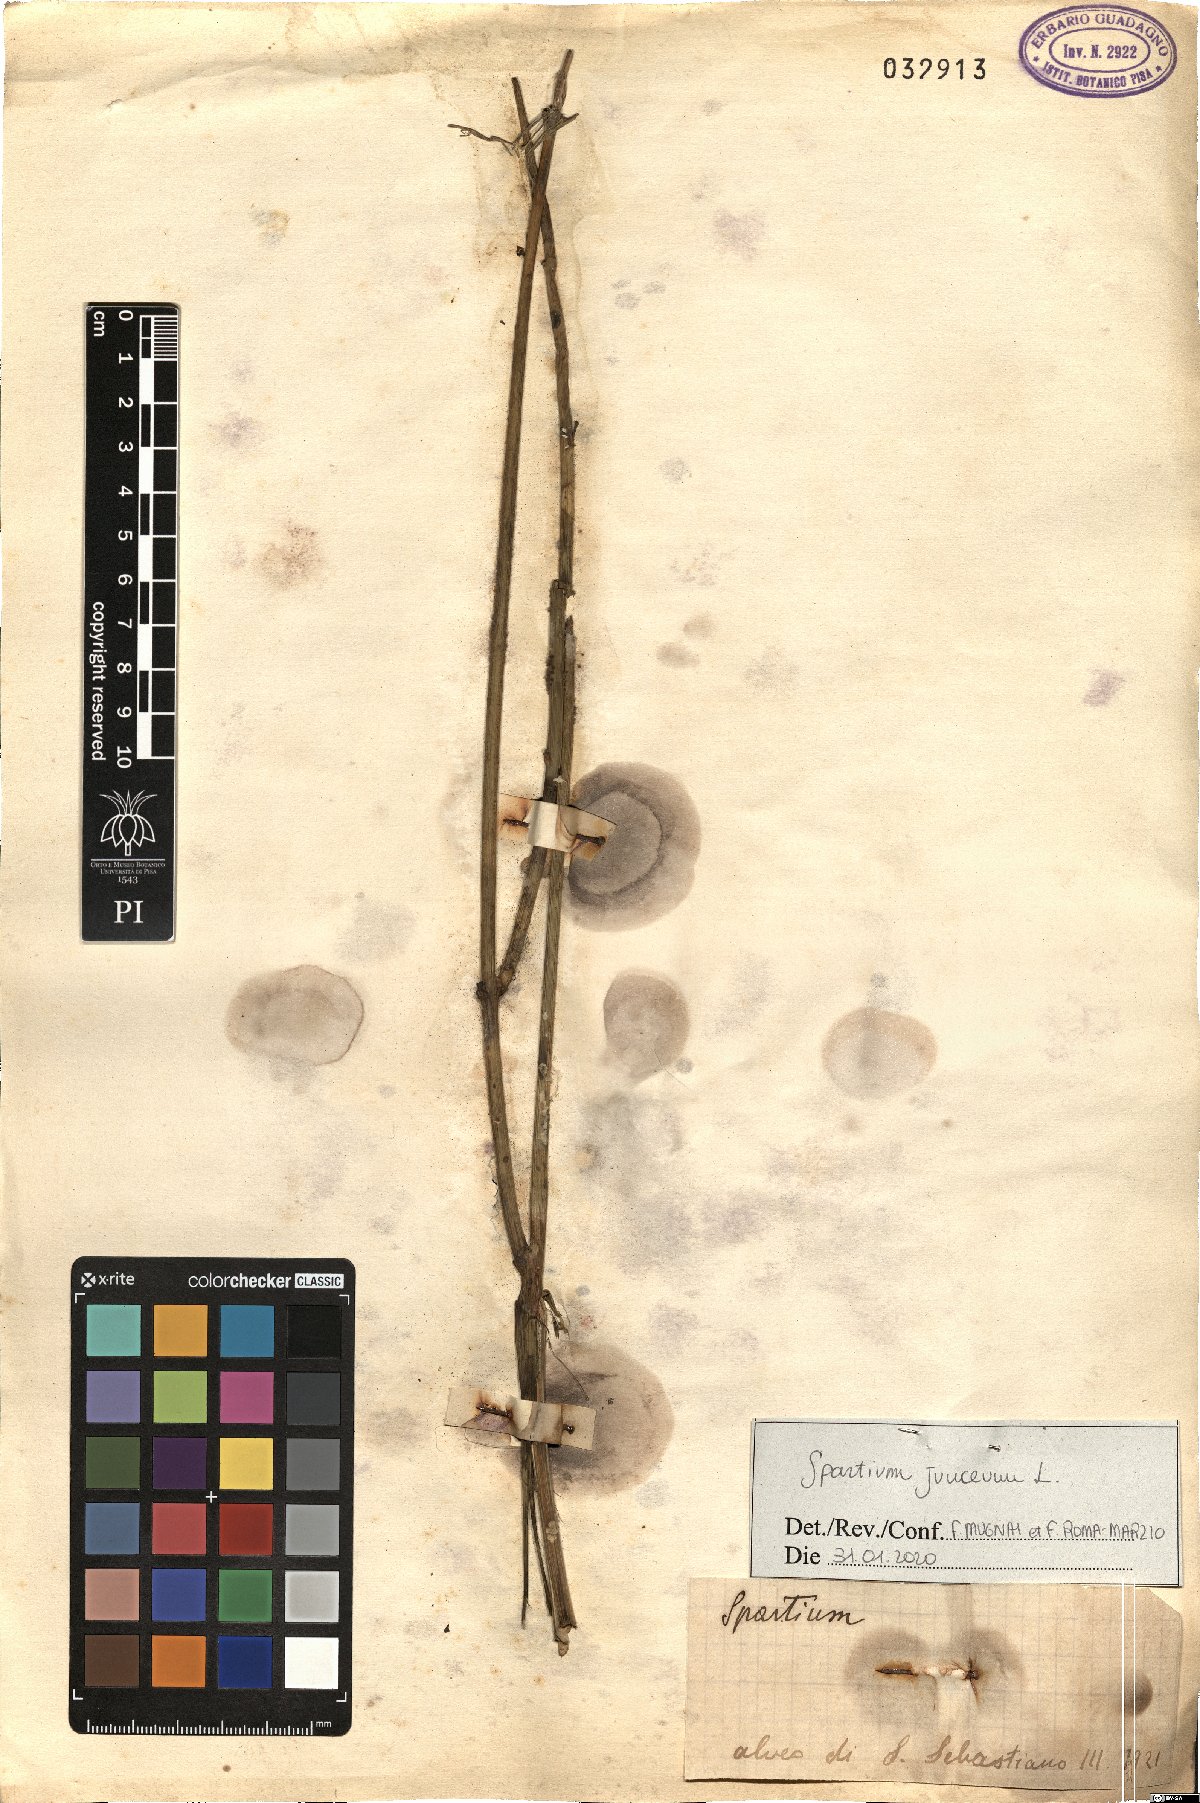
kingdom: Plantae
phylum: Tracheophyta
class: Magnoliopsida
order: Fabales
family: Fabaceae
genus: Spartium
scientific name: Spartium junceum
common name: Spanish broom
